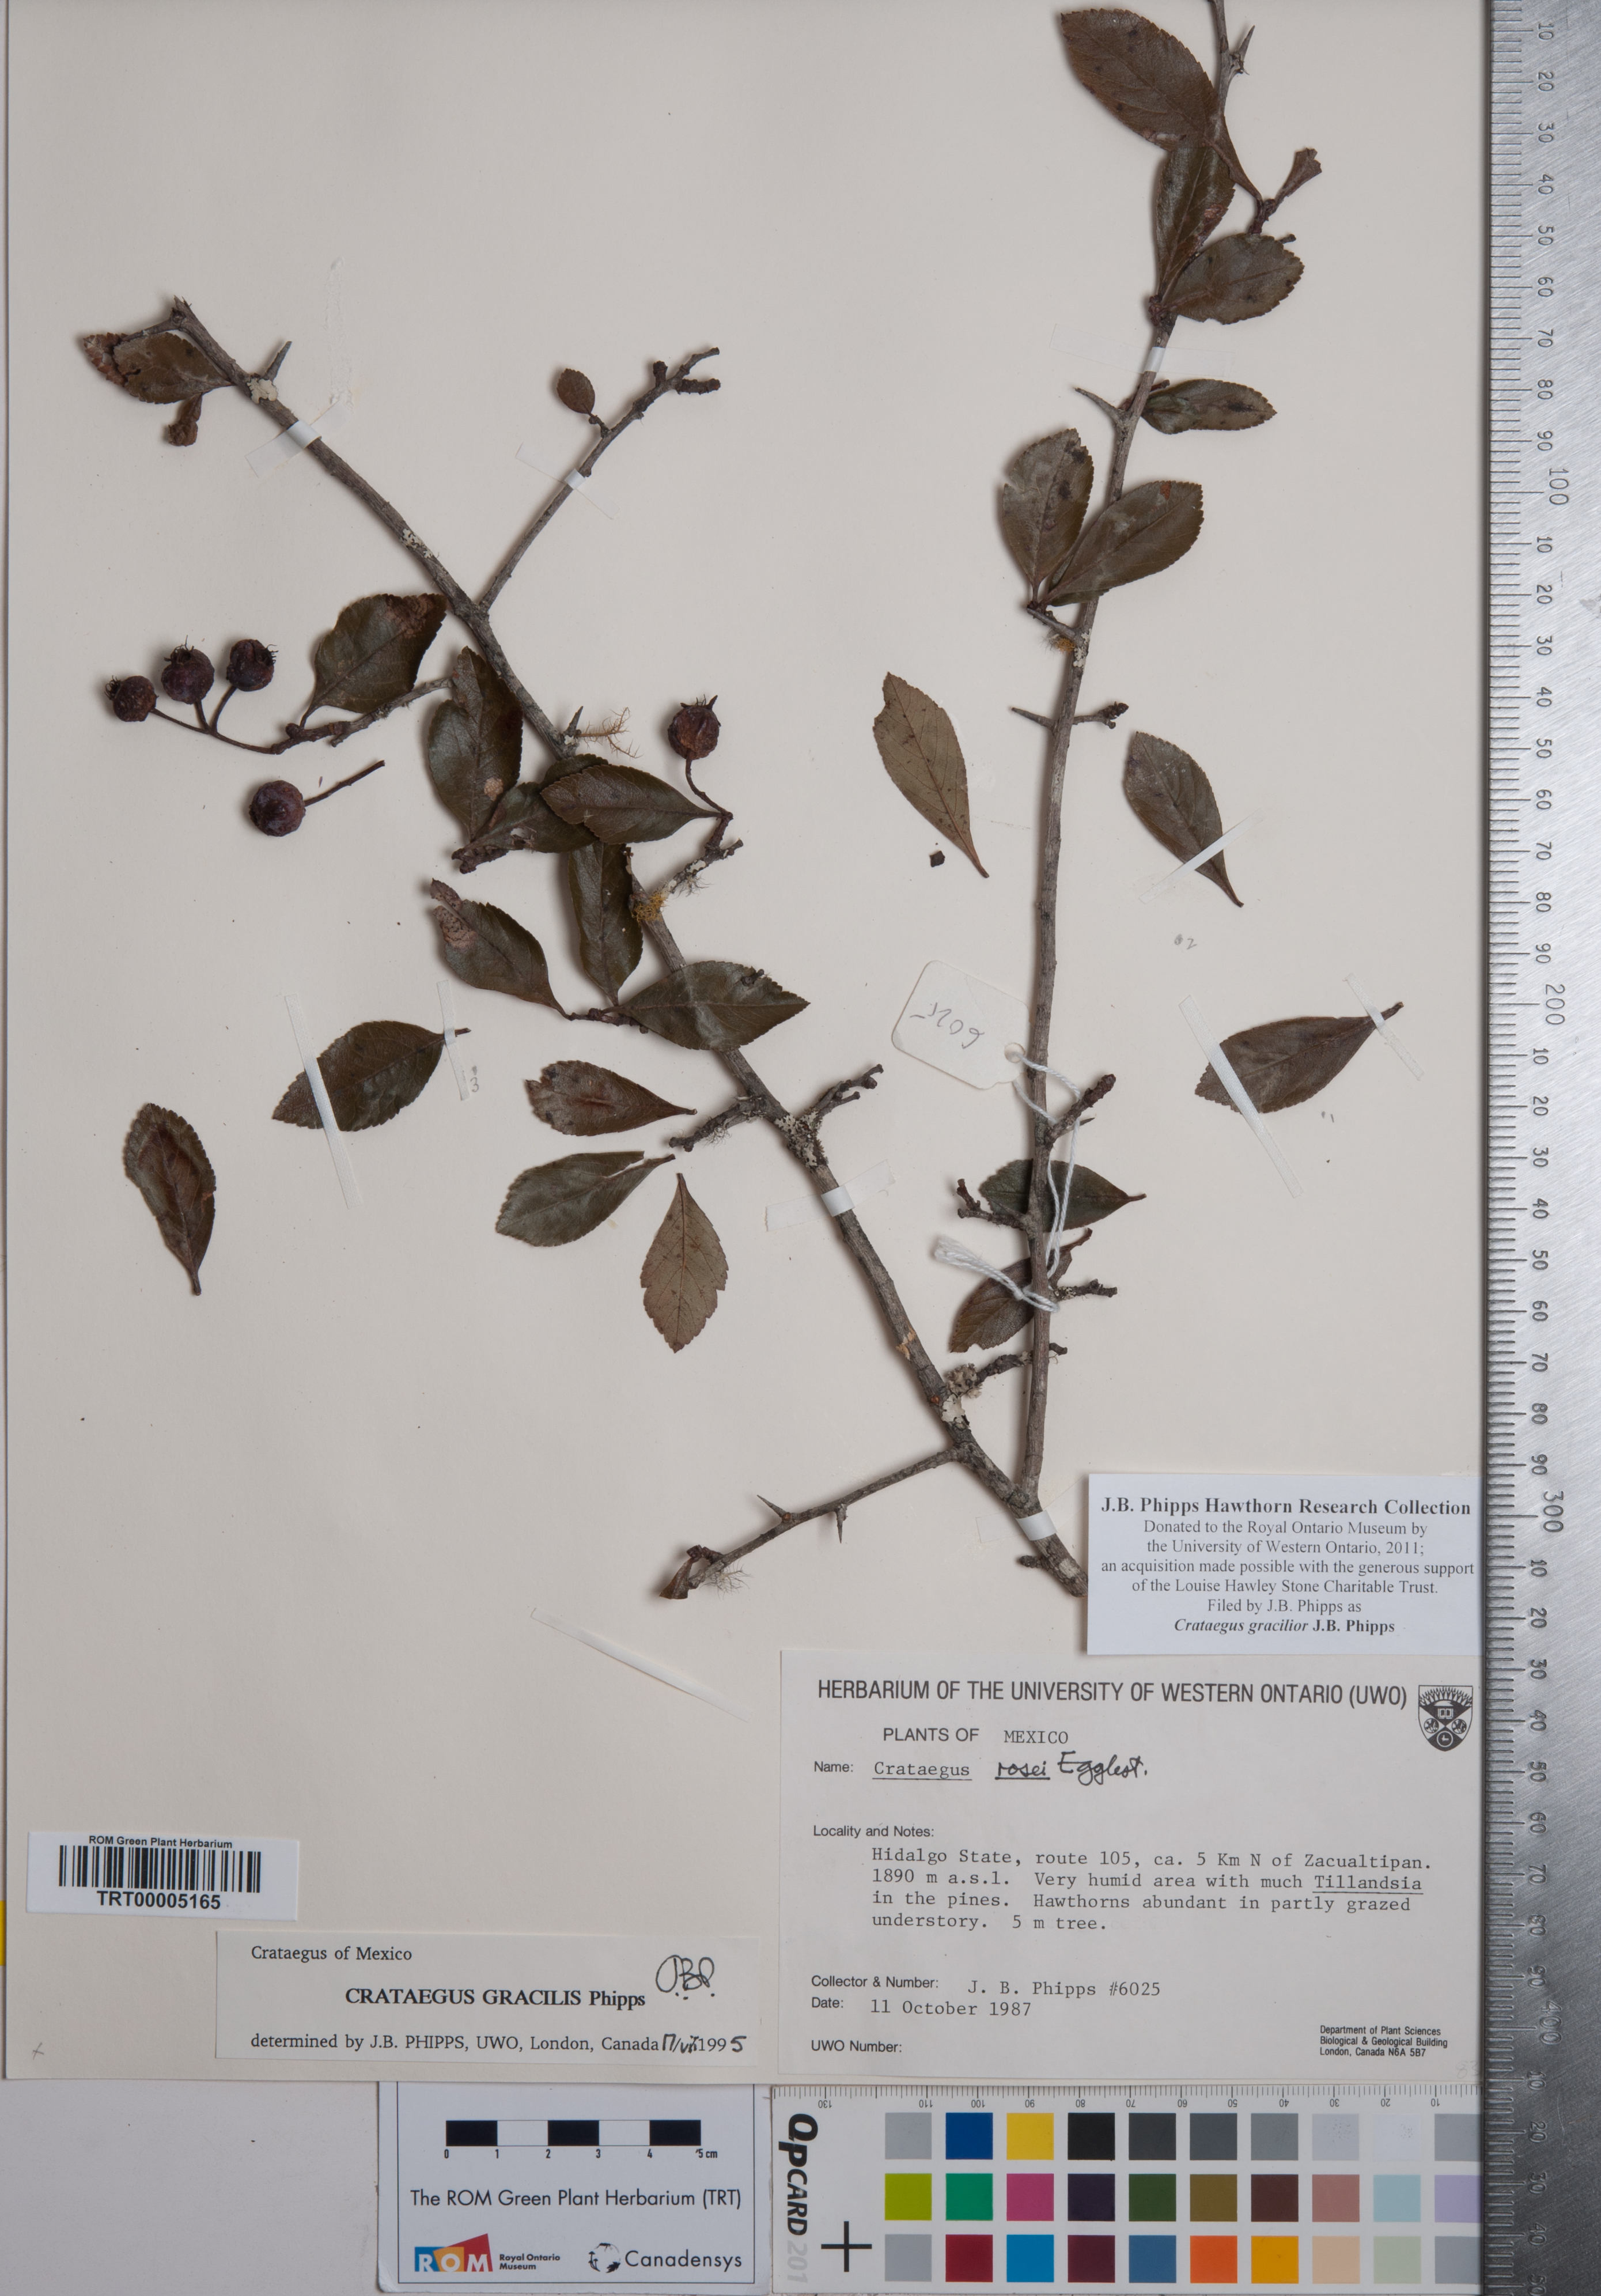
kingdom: Plantae
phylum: Tracheophyta
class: Magnoliopsida
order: Rosales
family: Rosaceae
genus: Crataegus
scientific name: Crataegus gracilior
